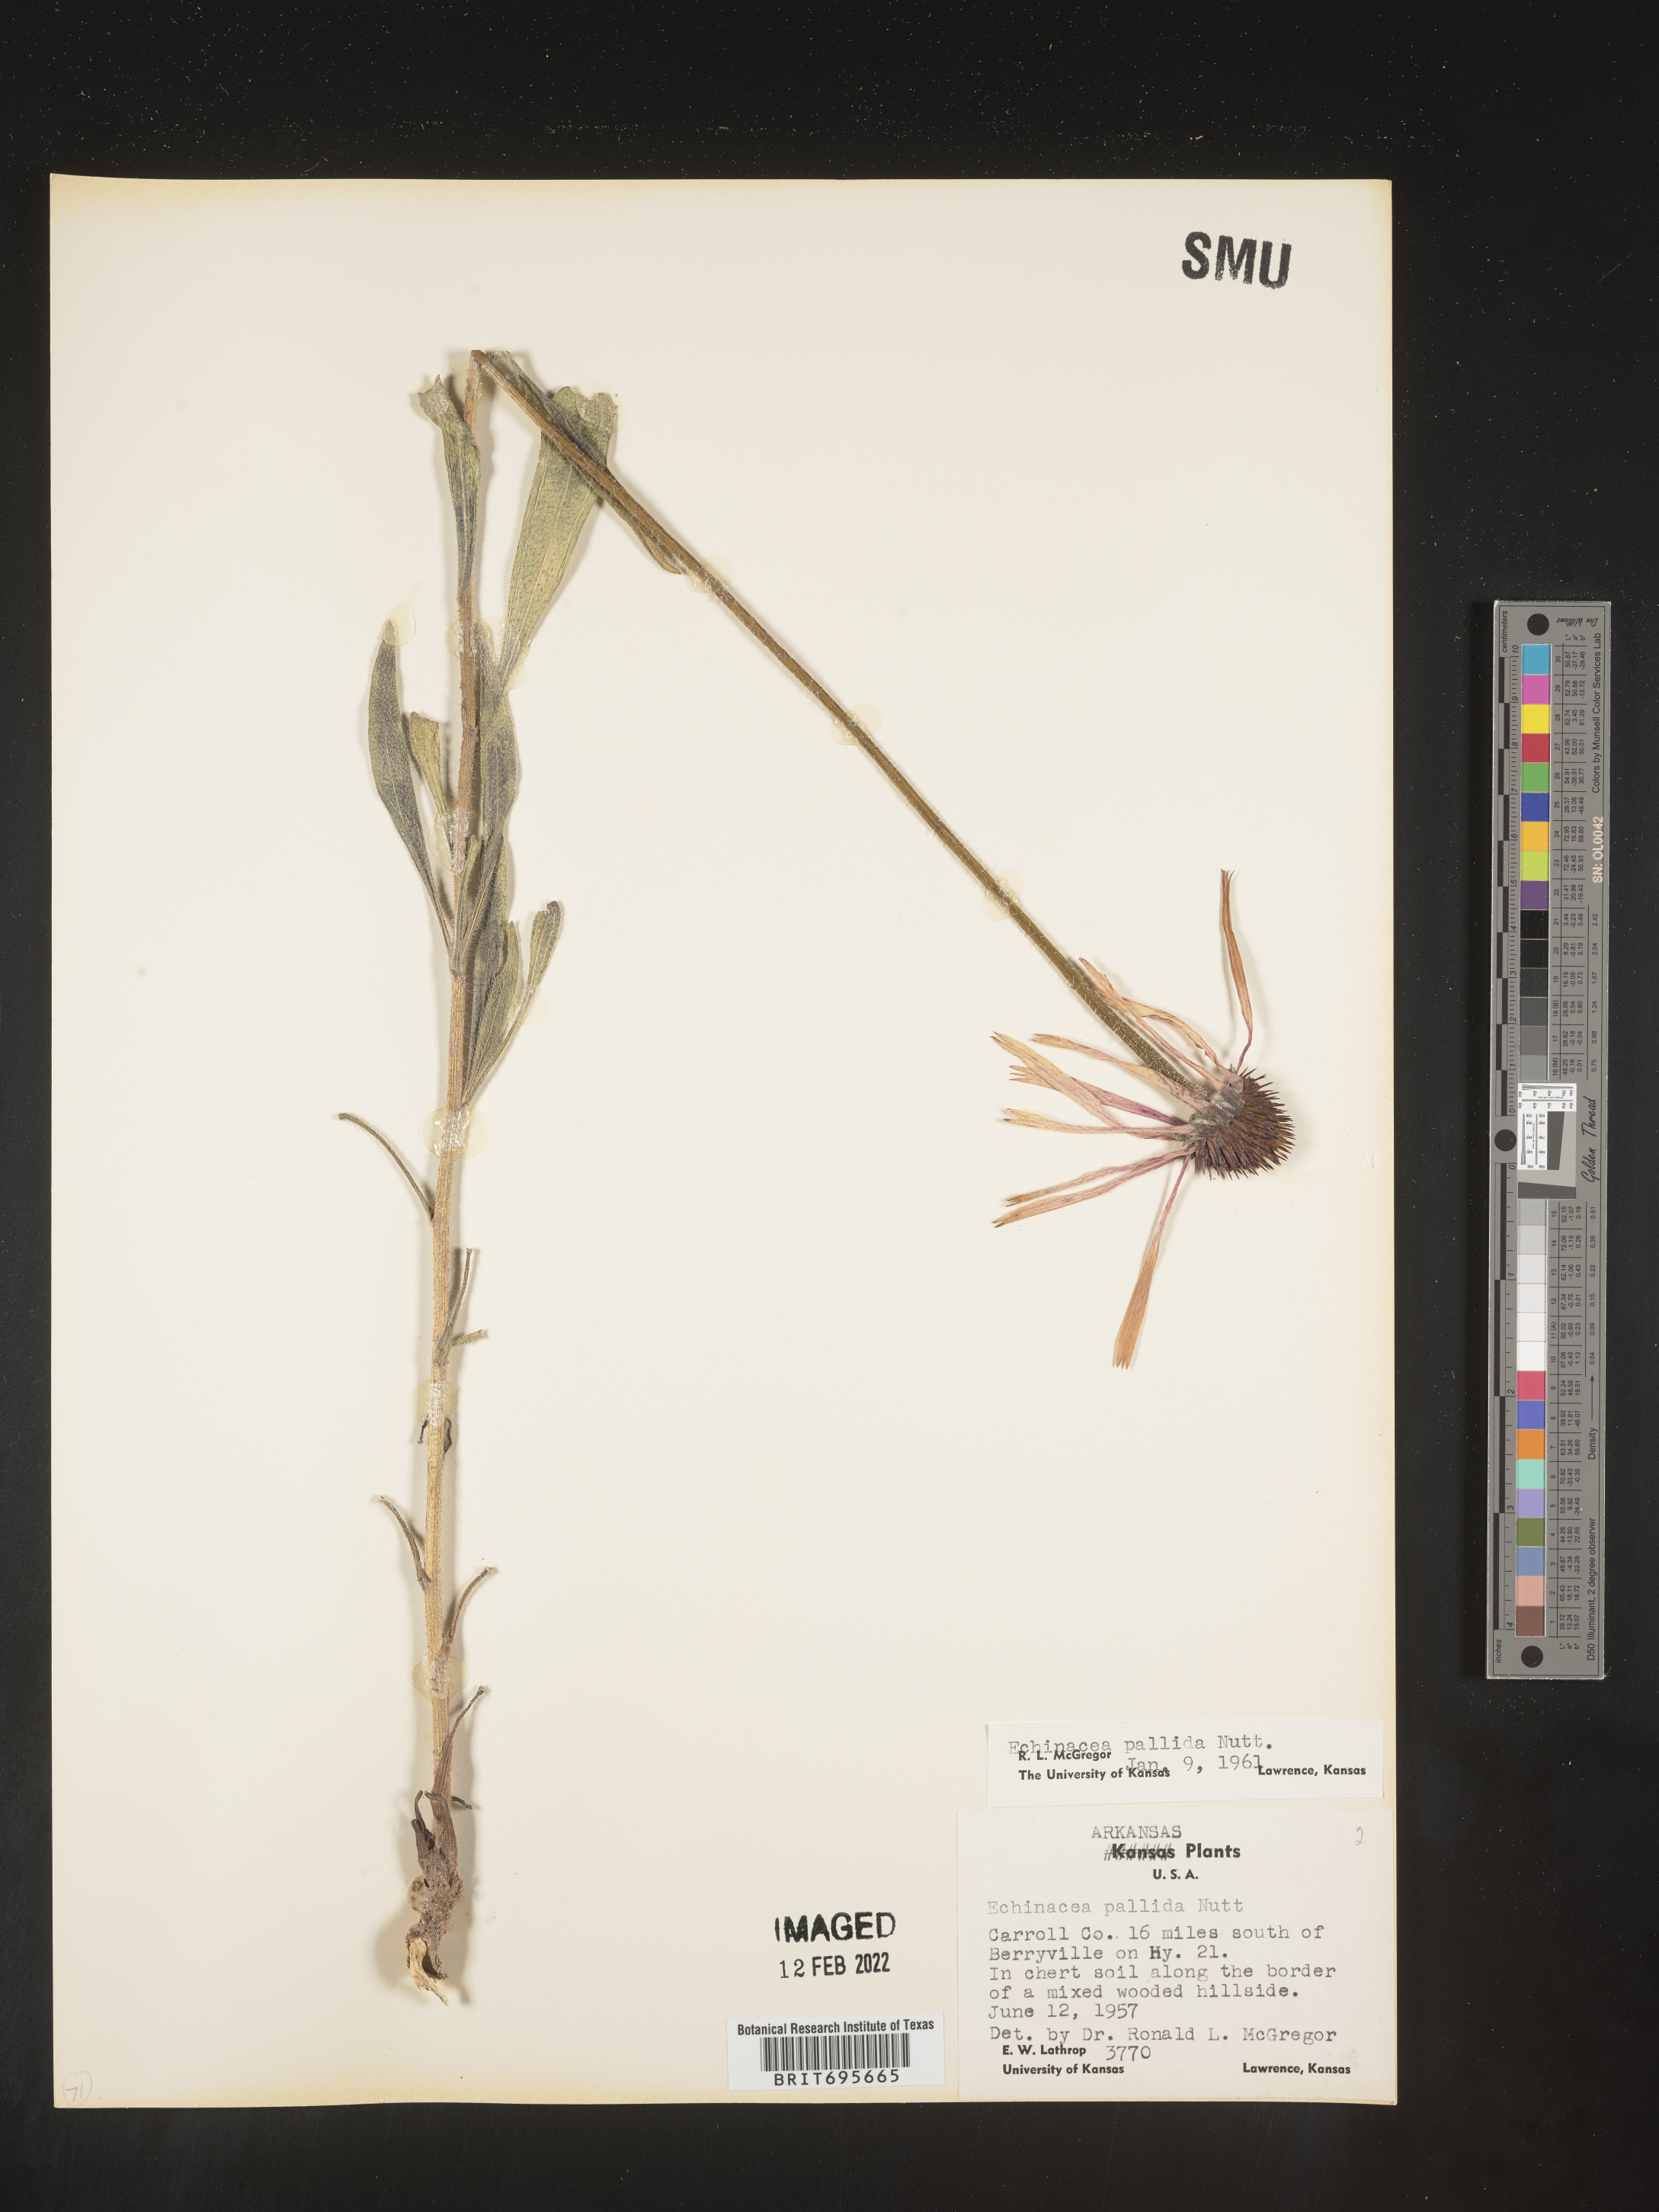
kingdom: Plantae
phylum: Tracheophyta
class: Magnoliopsida
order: Asterales
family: Asteraceae
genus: Echinacea
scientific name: Echinacea pallida
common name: Pale echinacea
